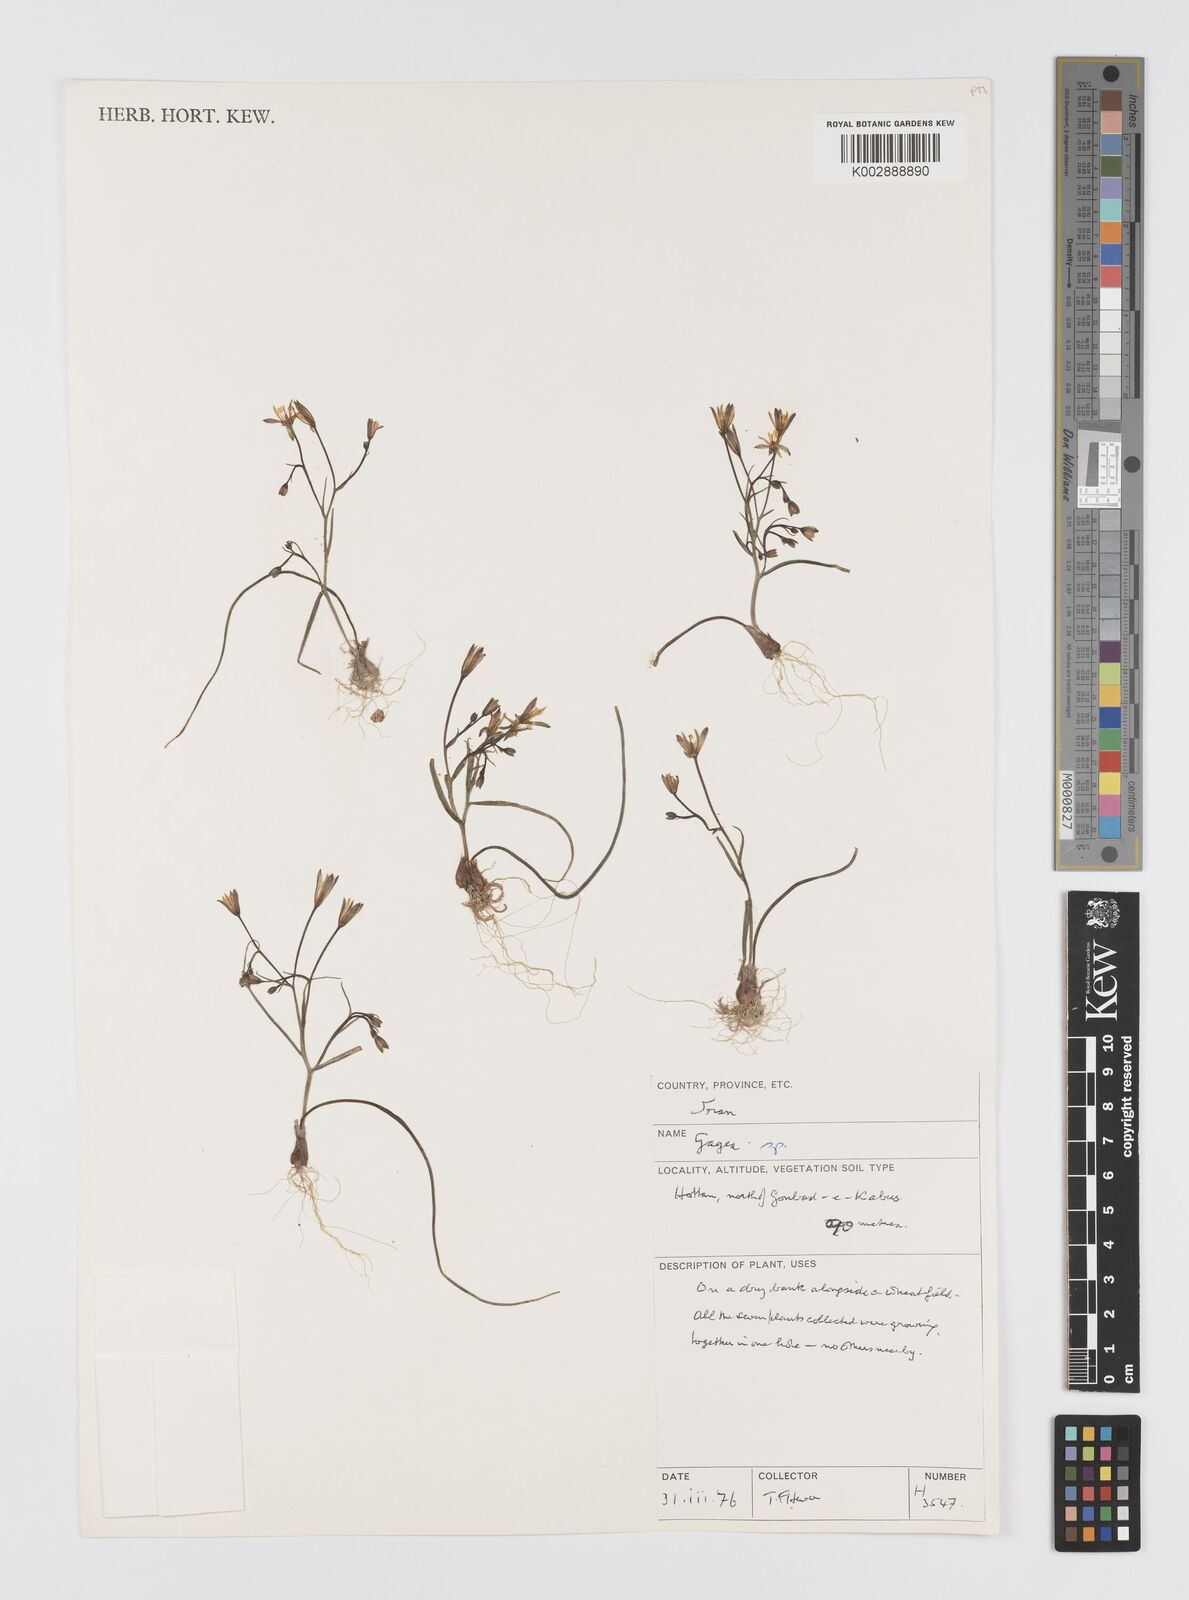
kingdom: Plantae
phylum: Tracheophyta
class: Liliopsida
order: Liliales
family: Liliaceae
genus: Gagea
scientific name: Gagea
